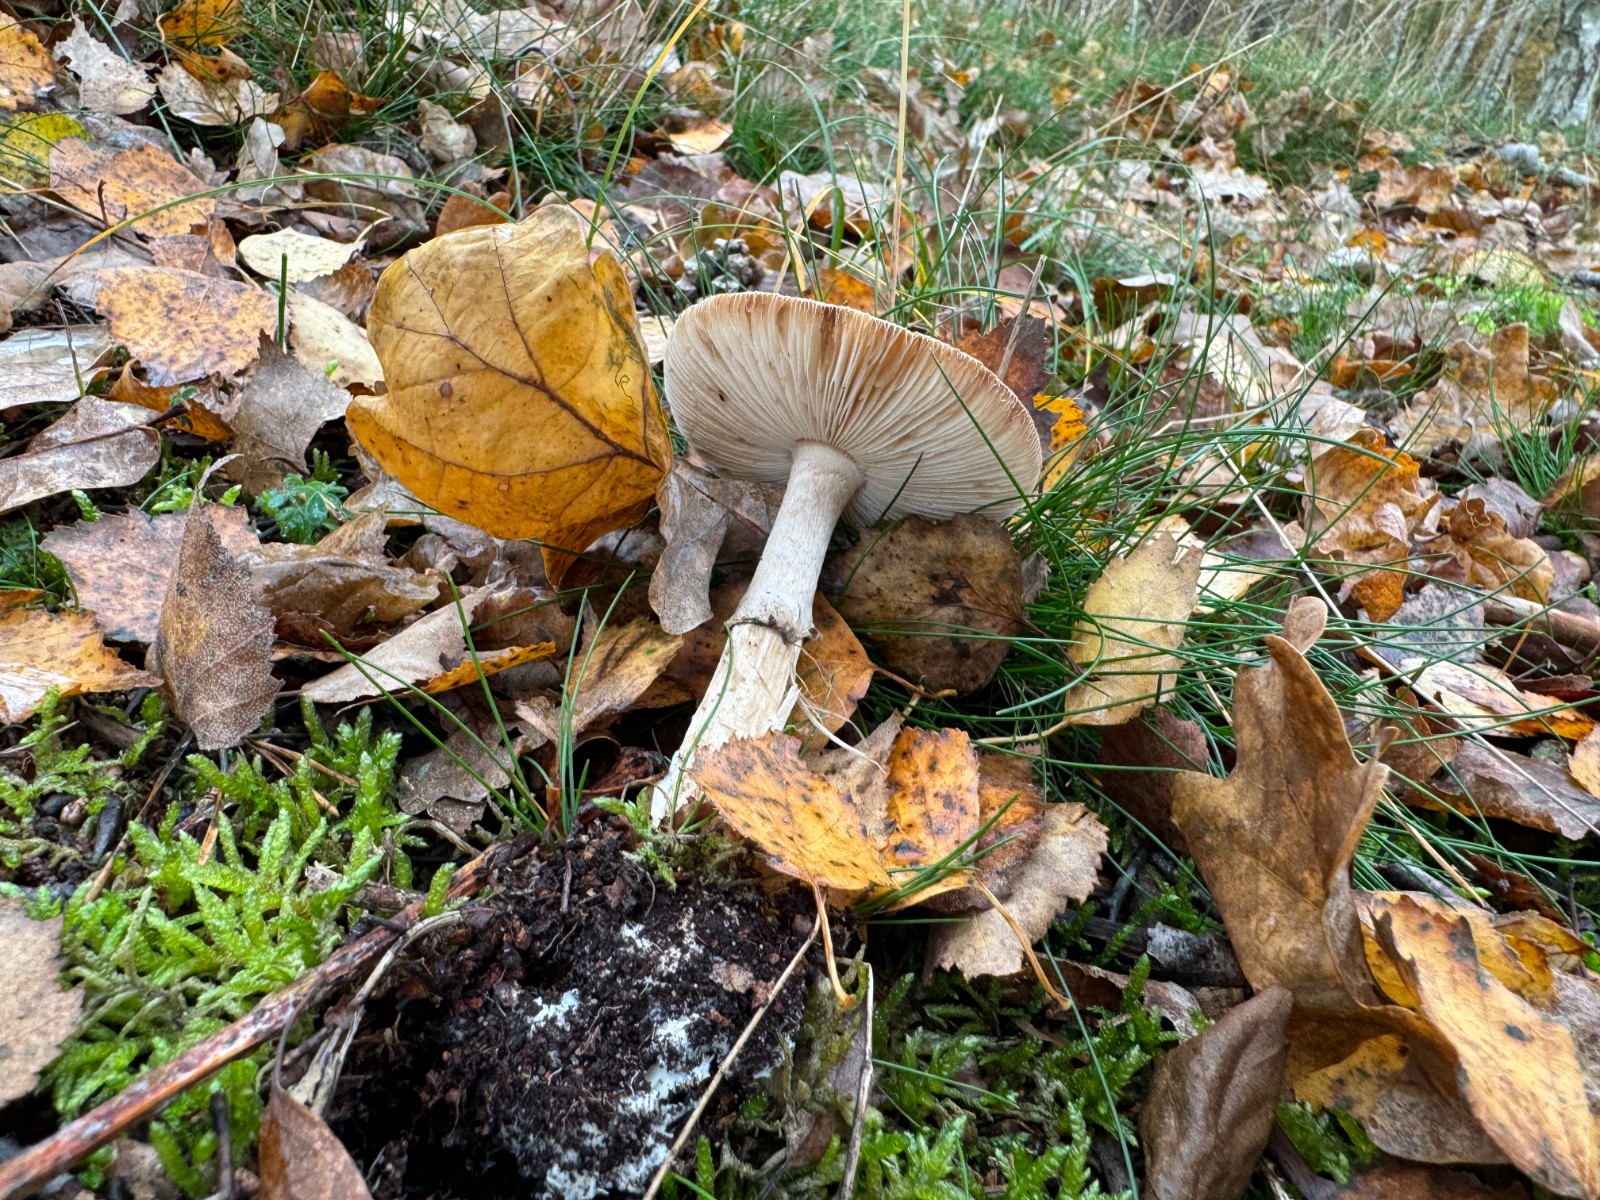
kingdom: Fungi
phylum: Basidiomycota
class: Agaricomycetes
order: Agaricales
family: Amanitaceae
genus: Amanita
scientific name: Amanita citrina
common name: kugleknoldet fluesvamp
